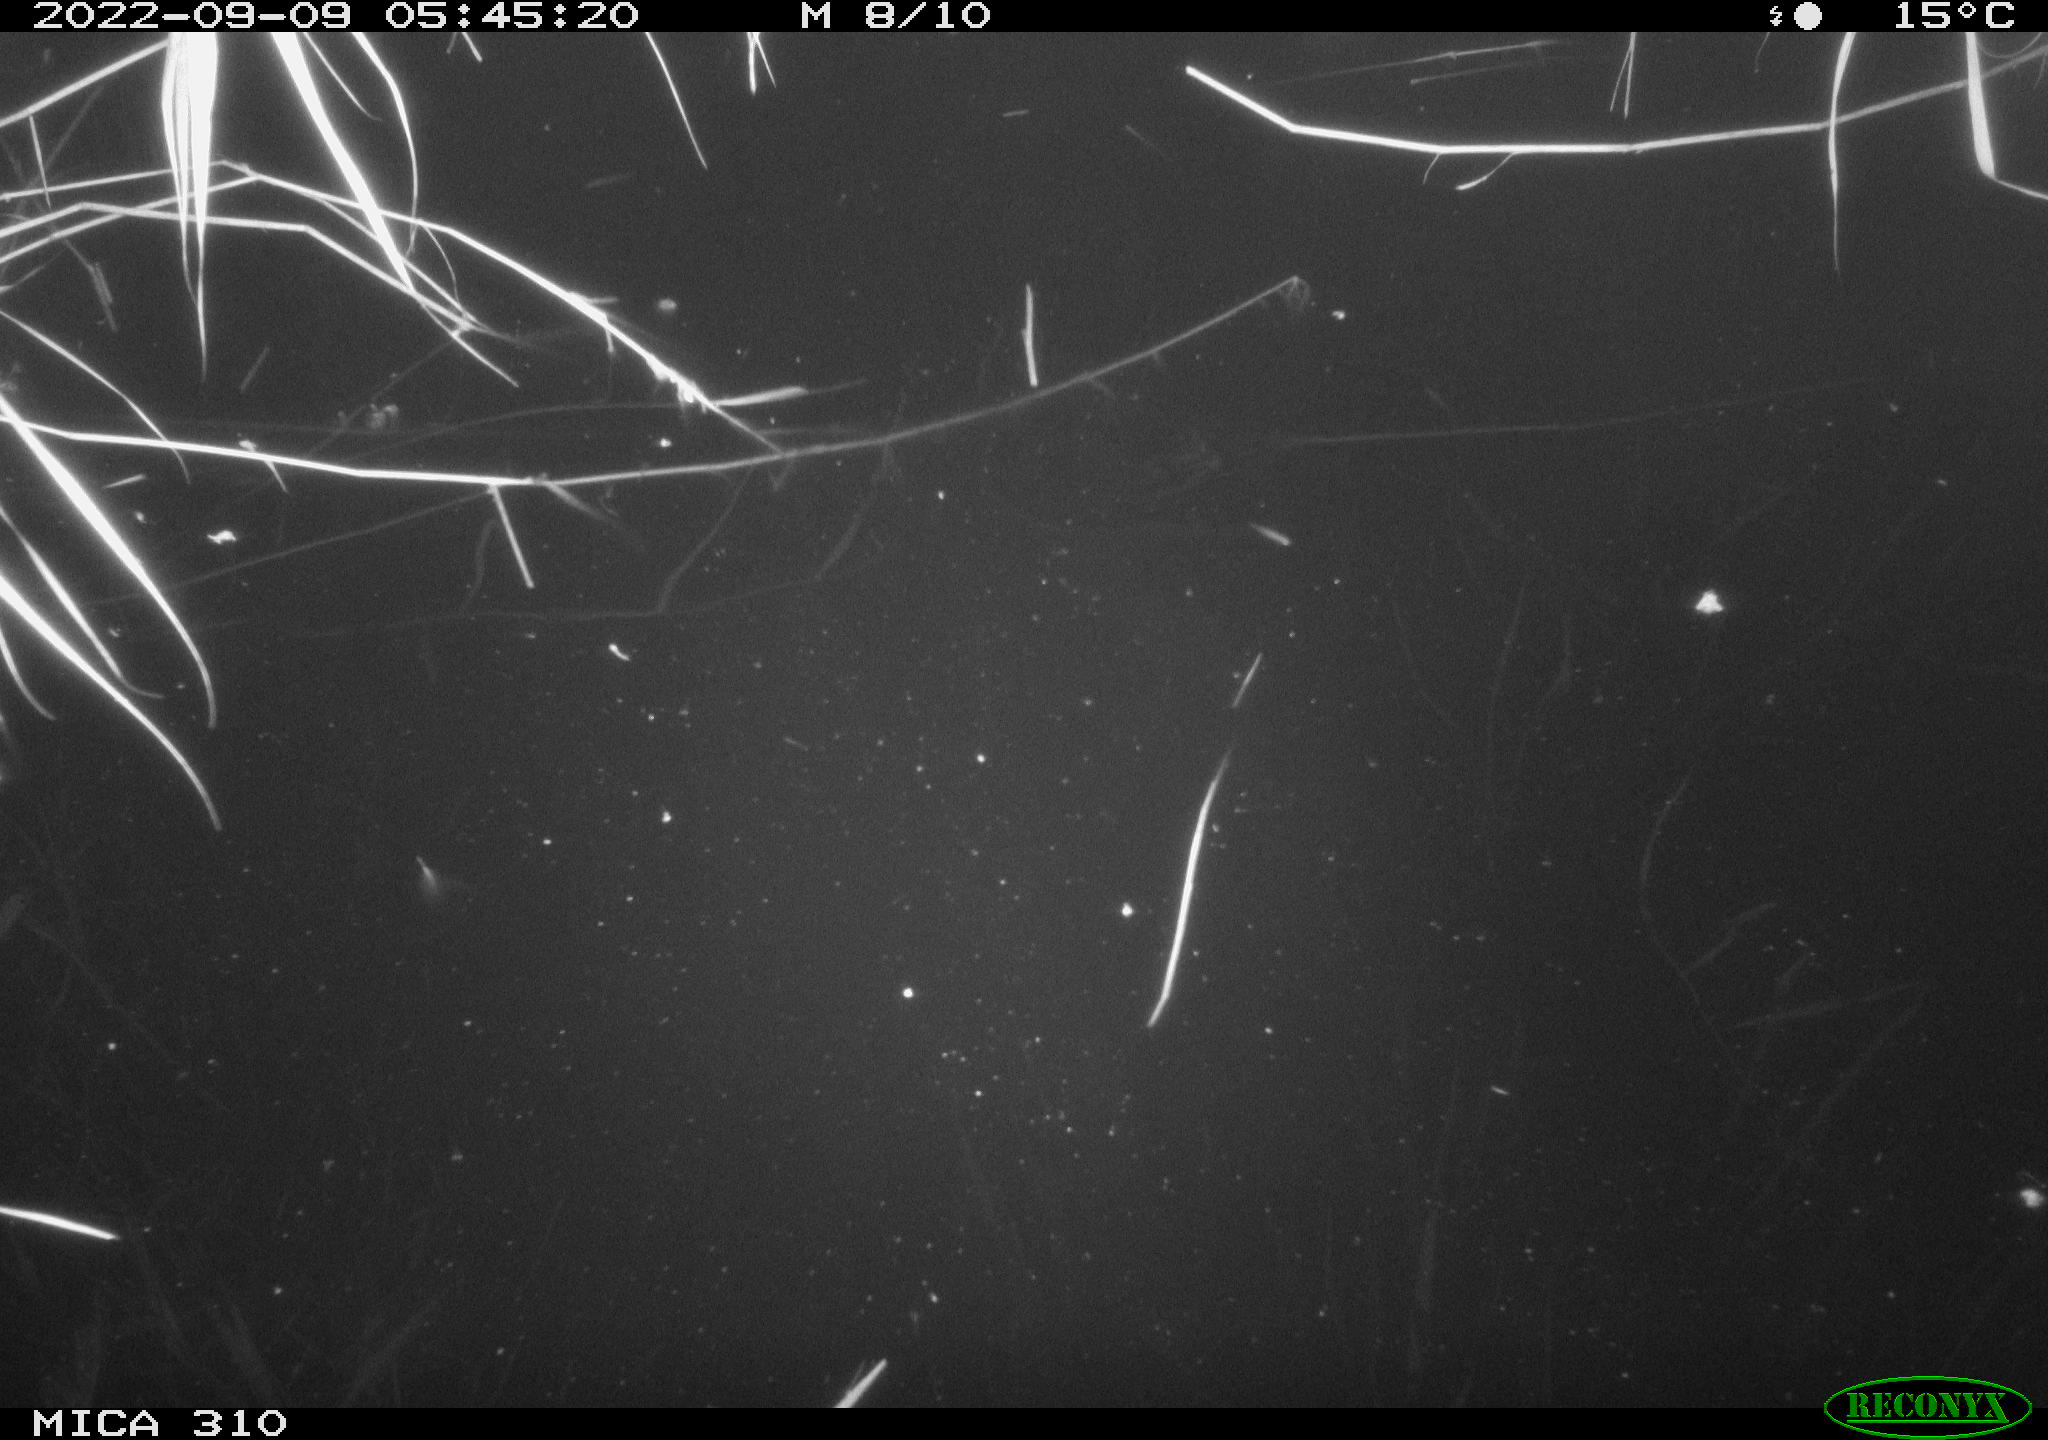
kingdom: Animalia
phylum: Chordata
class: Aves
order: Gruiformes
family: Rallidae
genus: Fulica
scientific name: Fulica atra
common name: Eurasian coot
